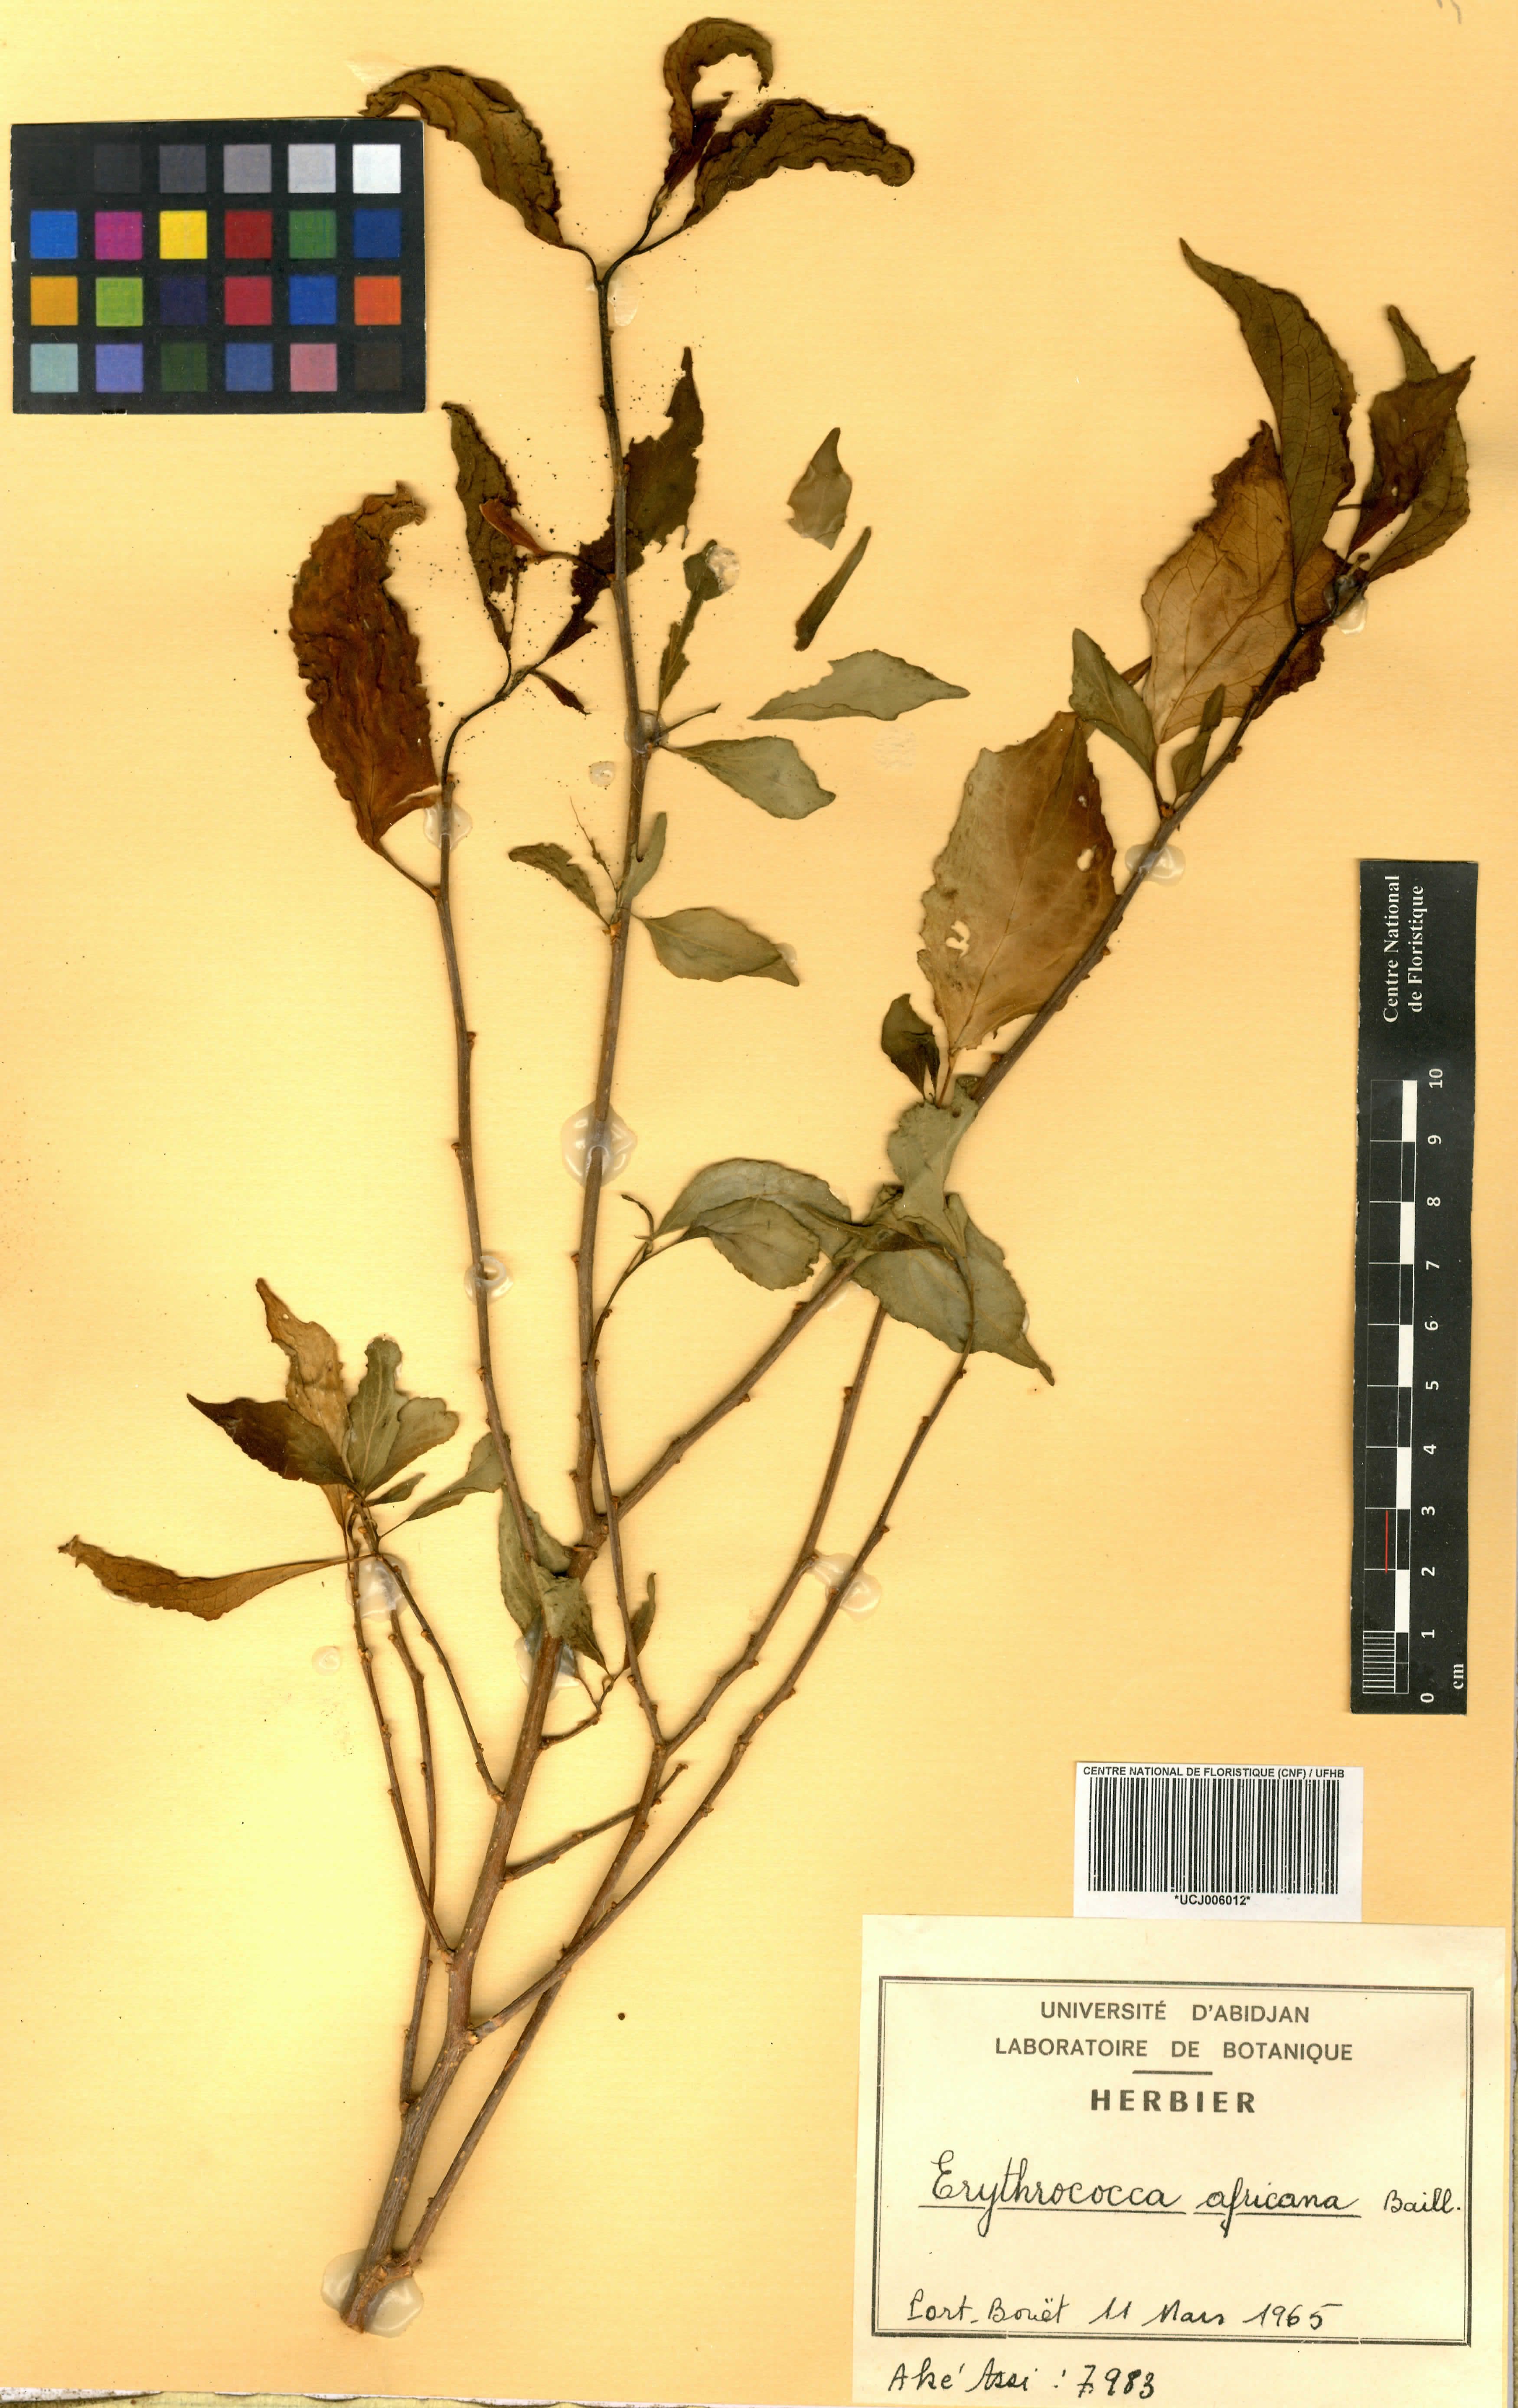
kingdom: Plantae
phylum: Tracheophyta
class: Magnoliopsida
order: Malpighiales
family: Euphorbiaceae
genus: Erythrococca
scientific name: Erythrococca africana
